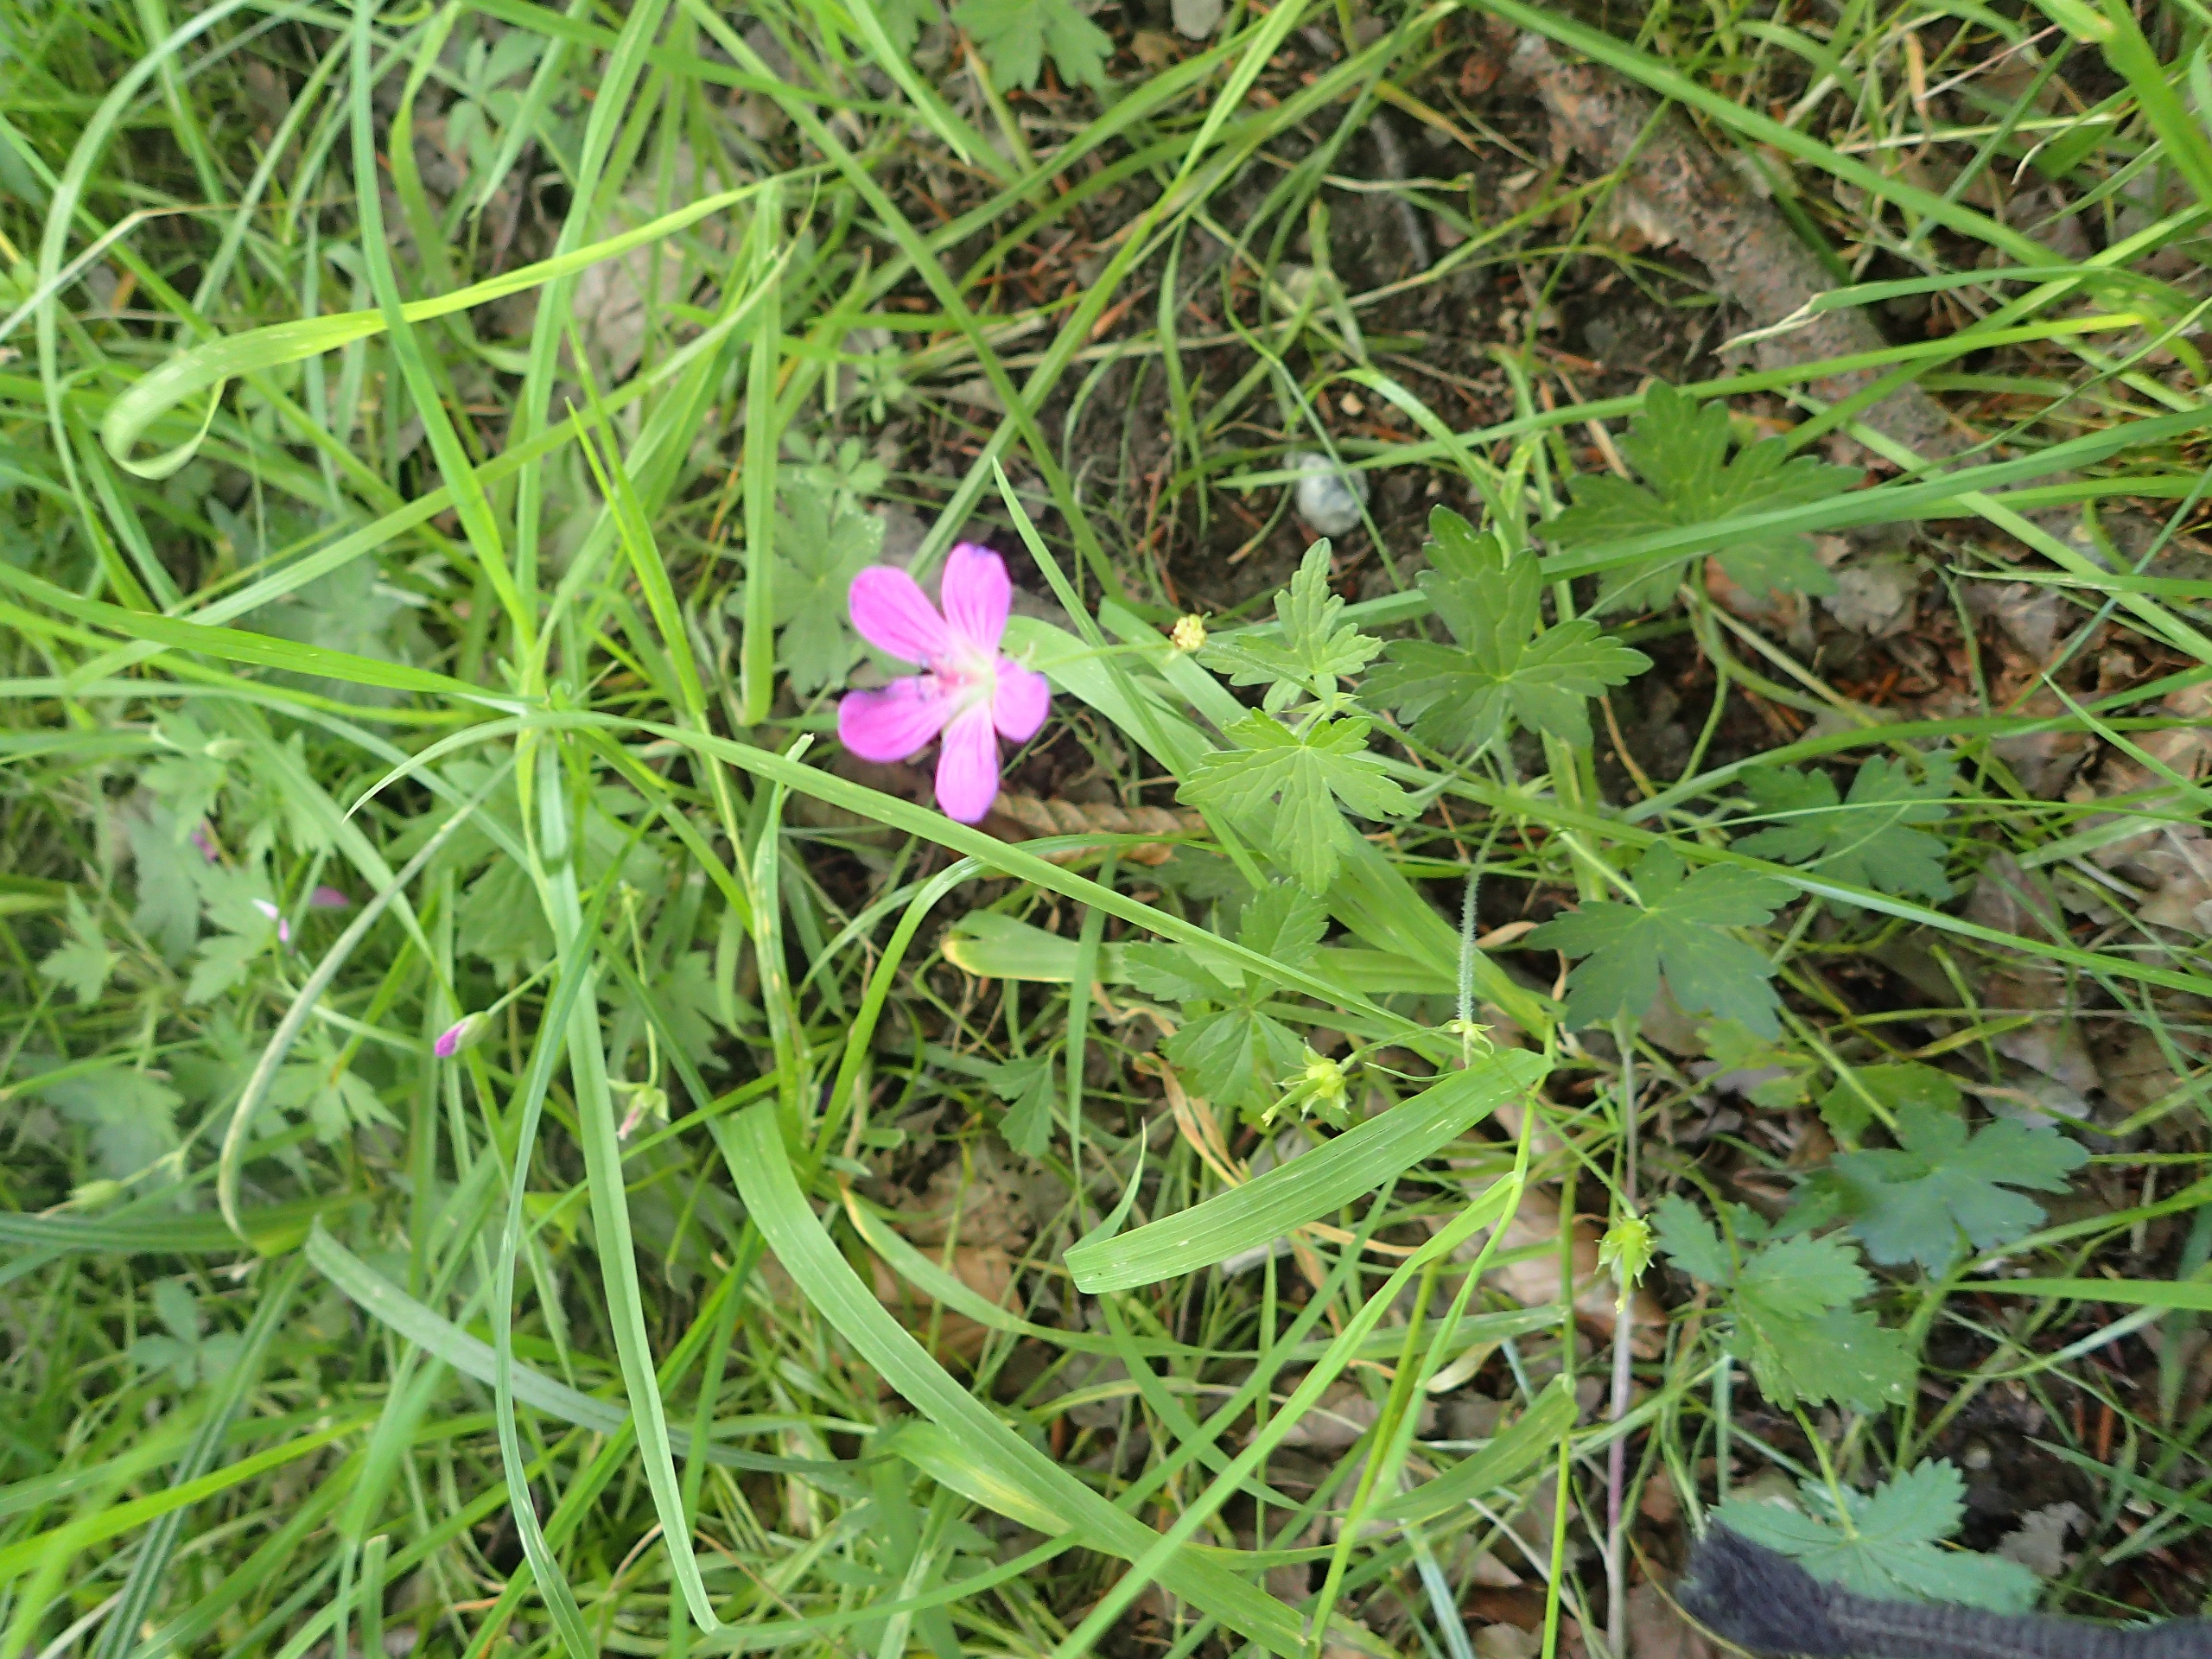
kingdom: Plantae
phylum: Tracheophyta
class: Magnoliopsida
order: Geraniales
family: Geraniaceae
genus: Geranium
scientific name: Geranium palustre
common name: Kær-storkenæb
